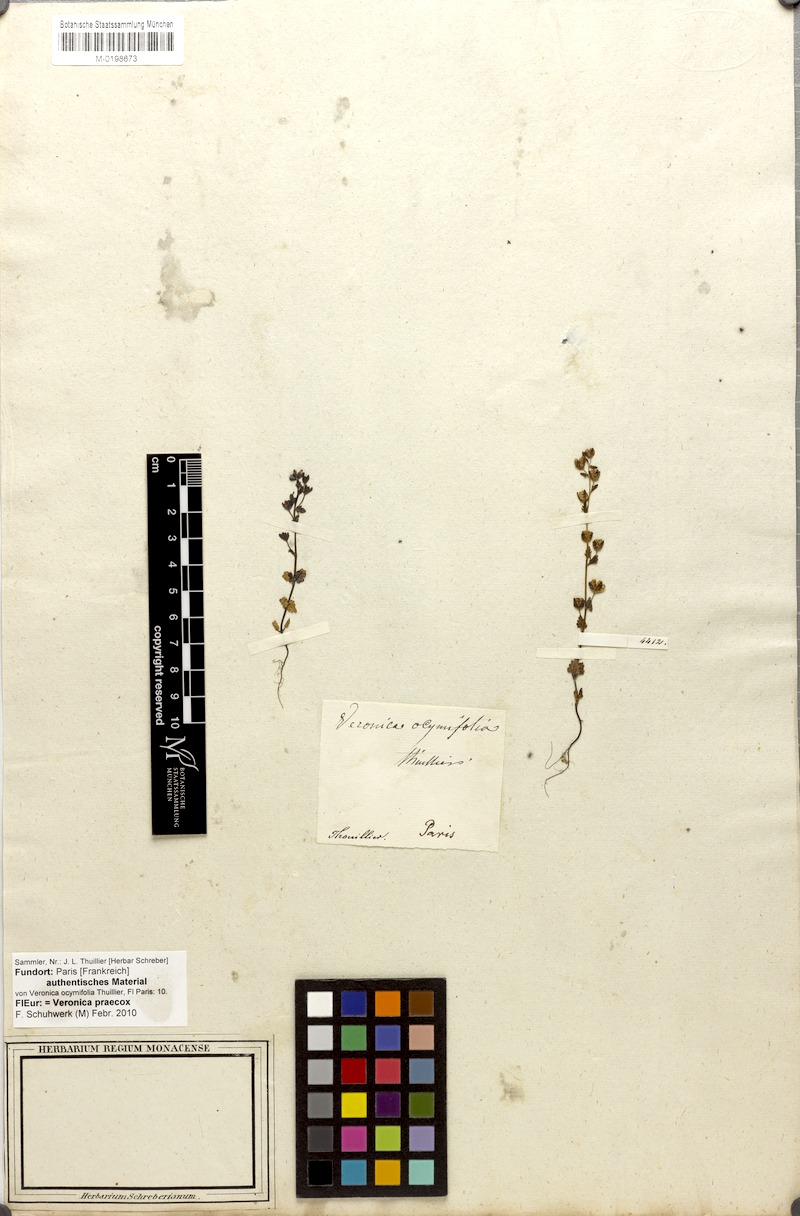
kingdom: Plantae
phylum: Tracheophyta
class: Magnoliopsida
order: Lamiales
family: Plantaginaceae
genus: Veronica
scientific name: Veronica praecox
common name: Breckland speedwell
